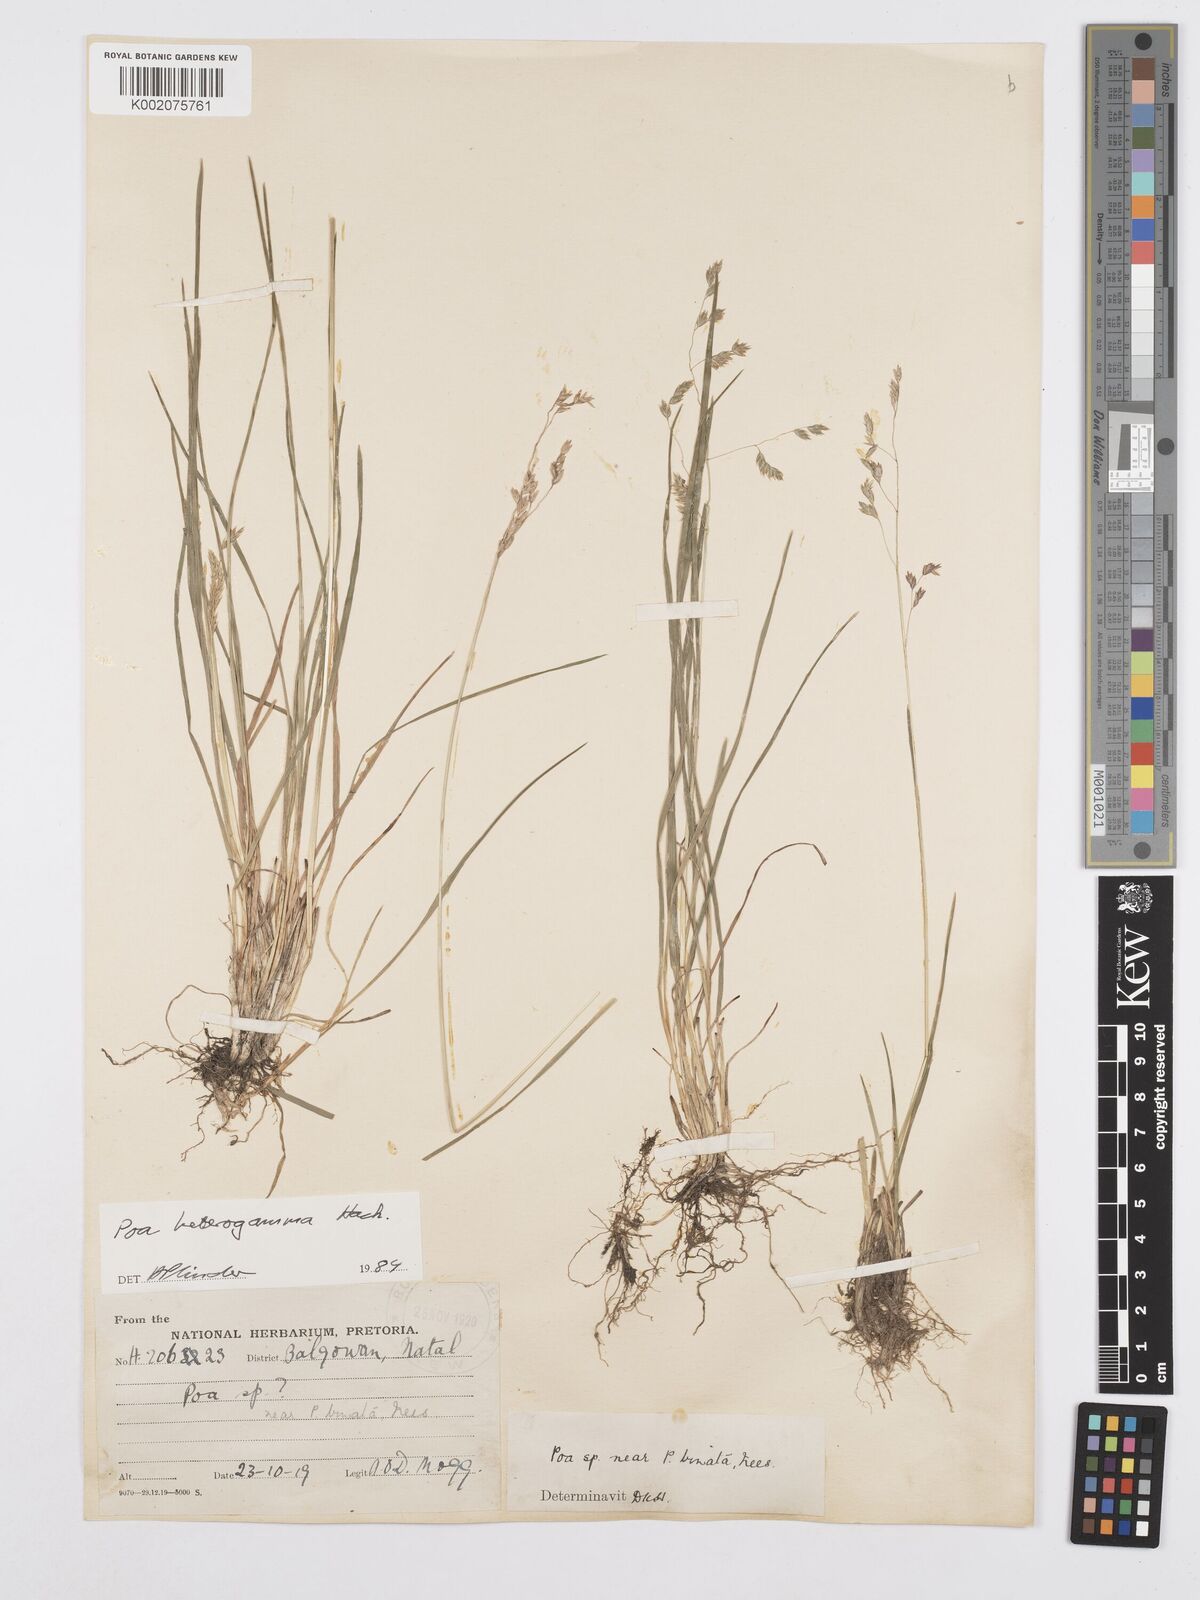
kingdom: Plantae
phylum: Tracheophyta
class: Liliopsida
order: Poales
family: Poaceae
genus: Poa
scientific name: Poa binata
